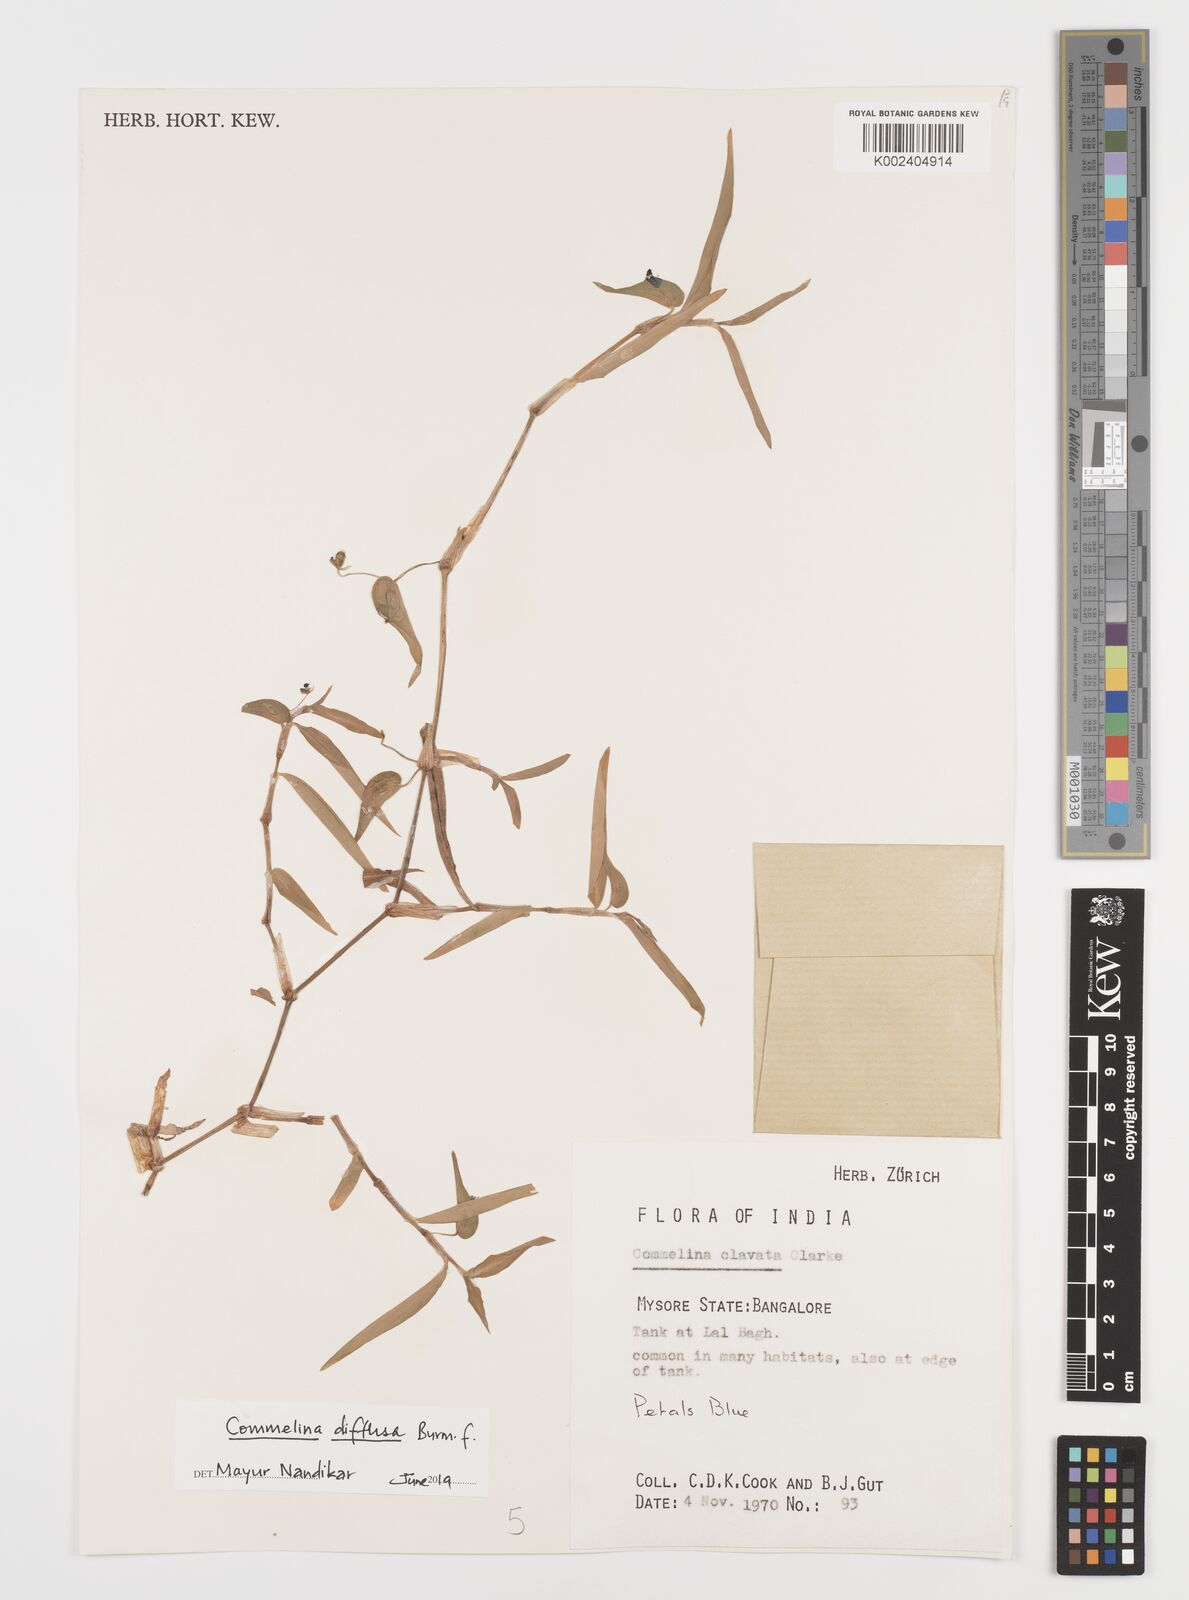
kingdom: Plantae
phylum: Tracheophyta
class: Liliopsida
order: Commelinales
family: Commelinaceae
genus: Commelina
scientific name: Commelina diffusa
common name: Climbing dayflower
